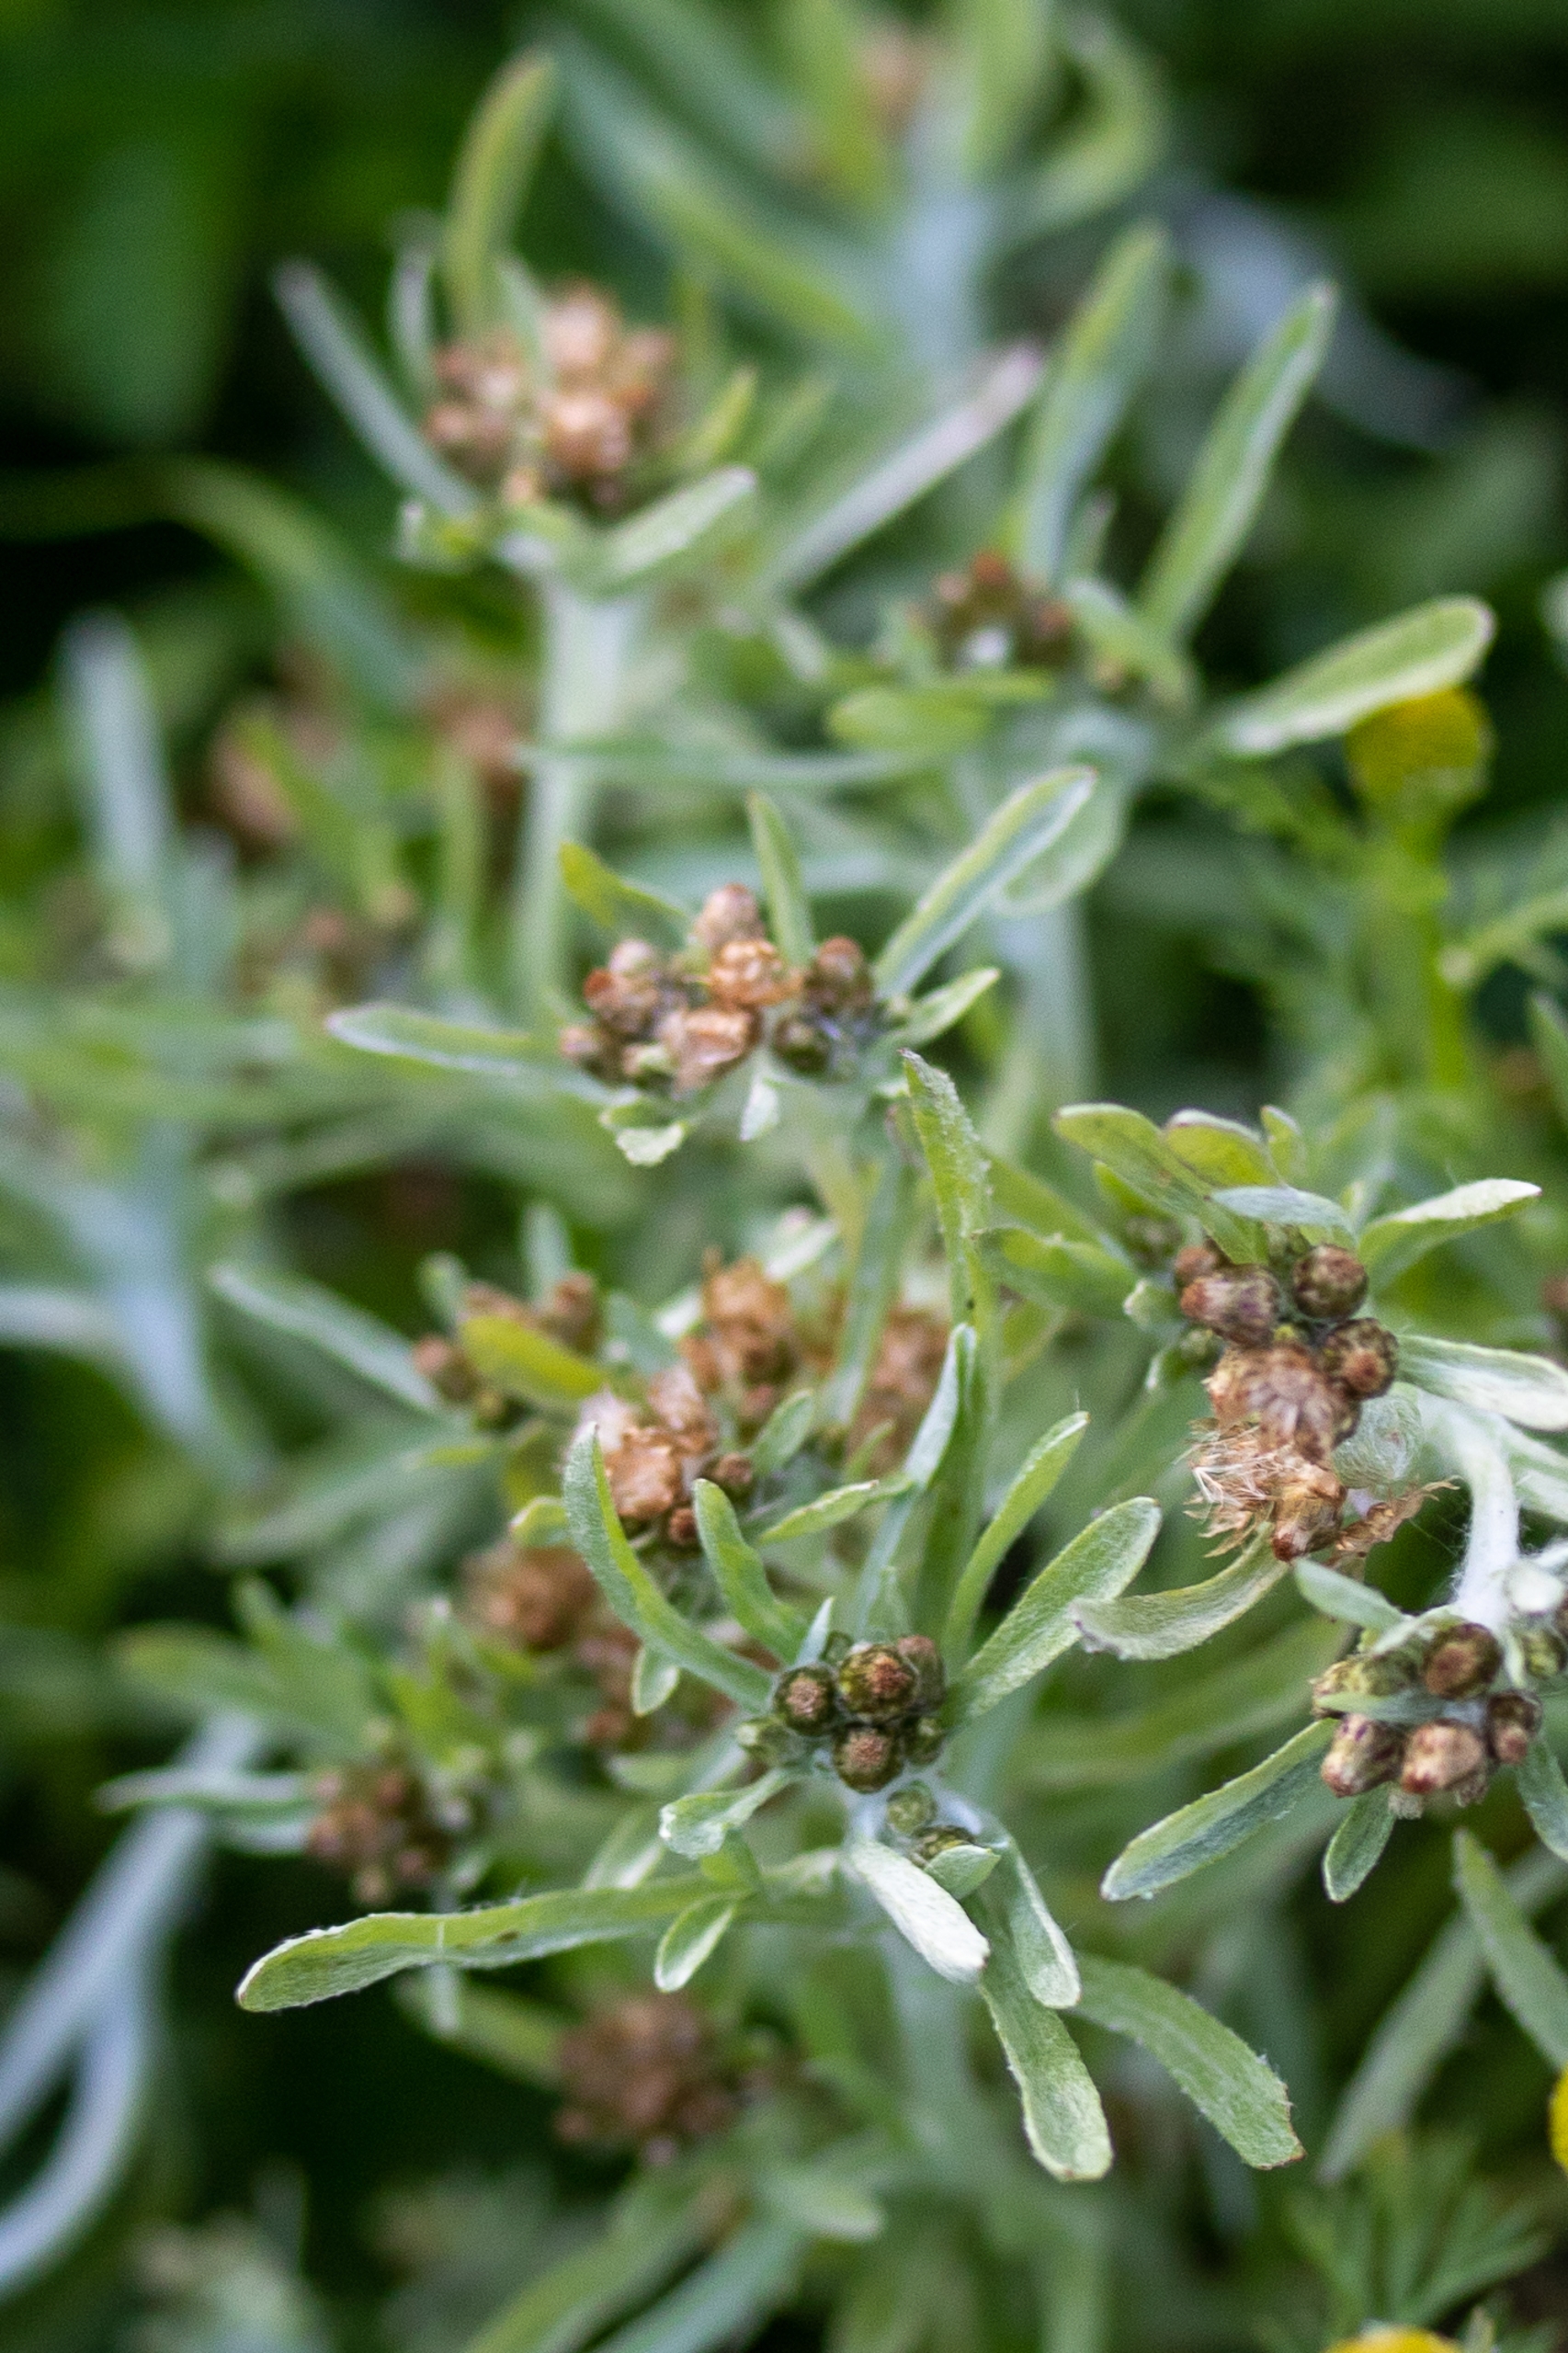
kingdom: Plantae
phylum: Tracheophyta
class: Magnoliopsida
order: Asterales
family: Asteraceae
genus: Gnaphalium
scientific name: Gnaphalium uliginosum
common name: Sump-evighedsblomst
